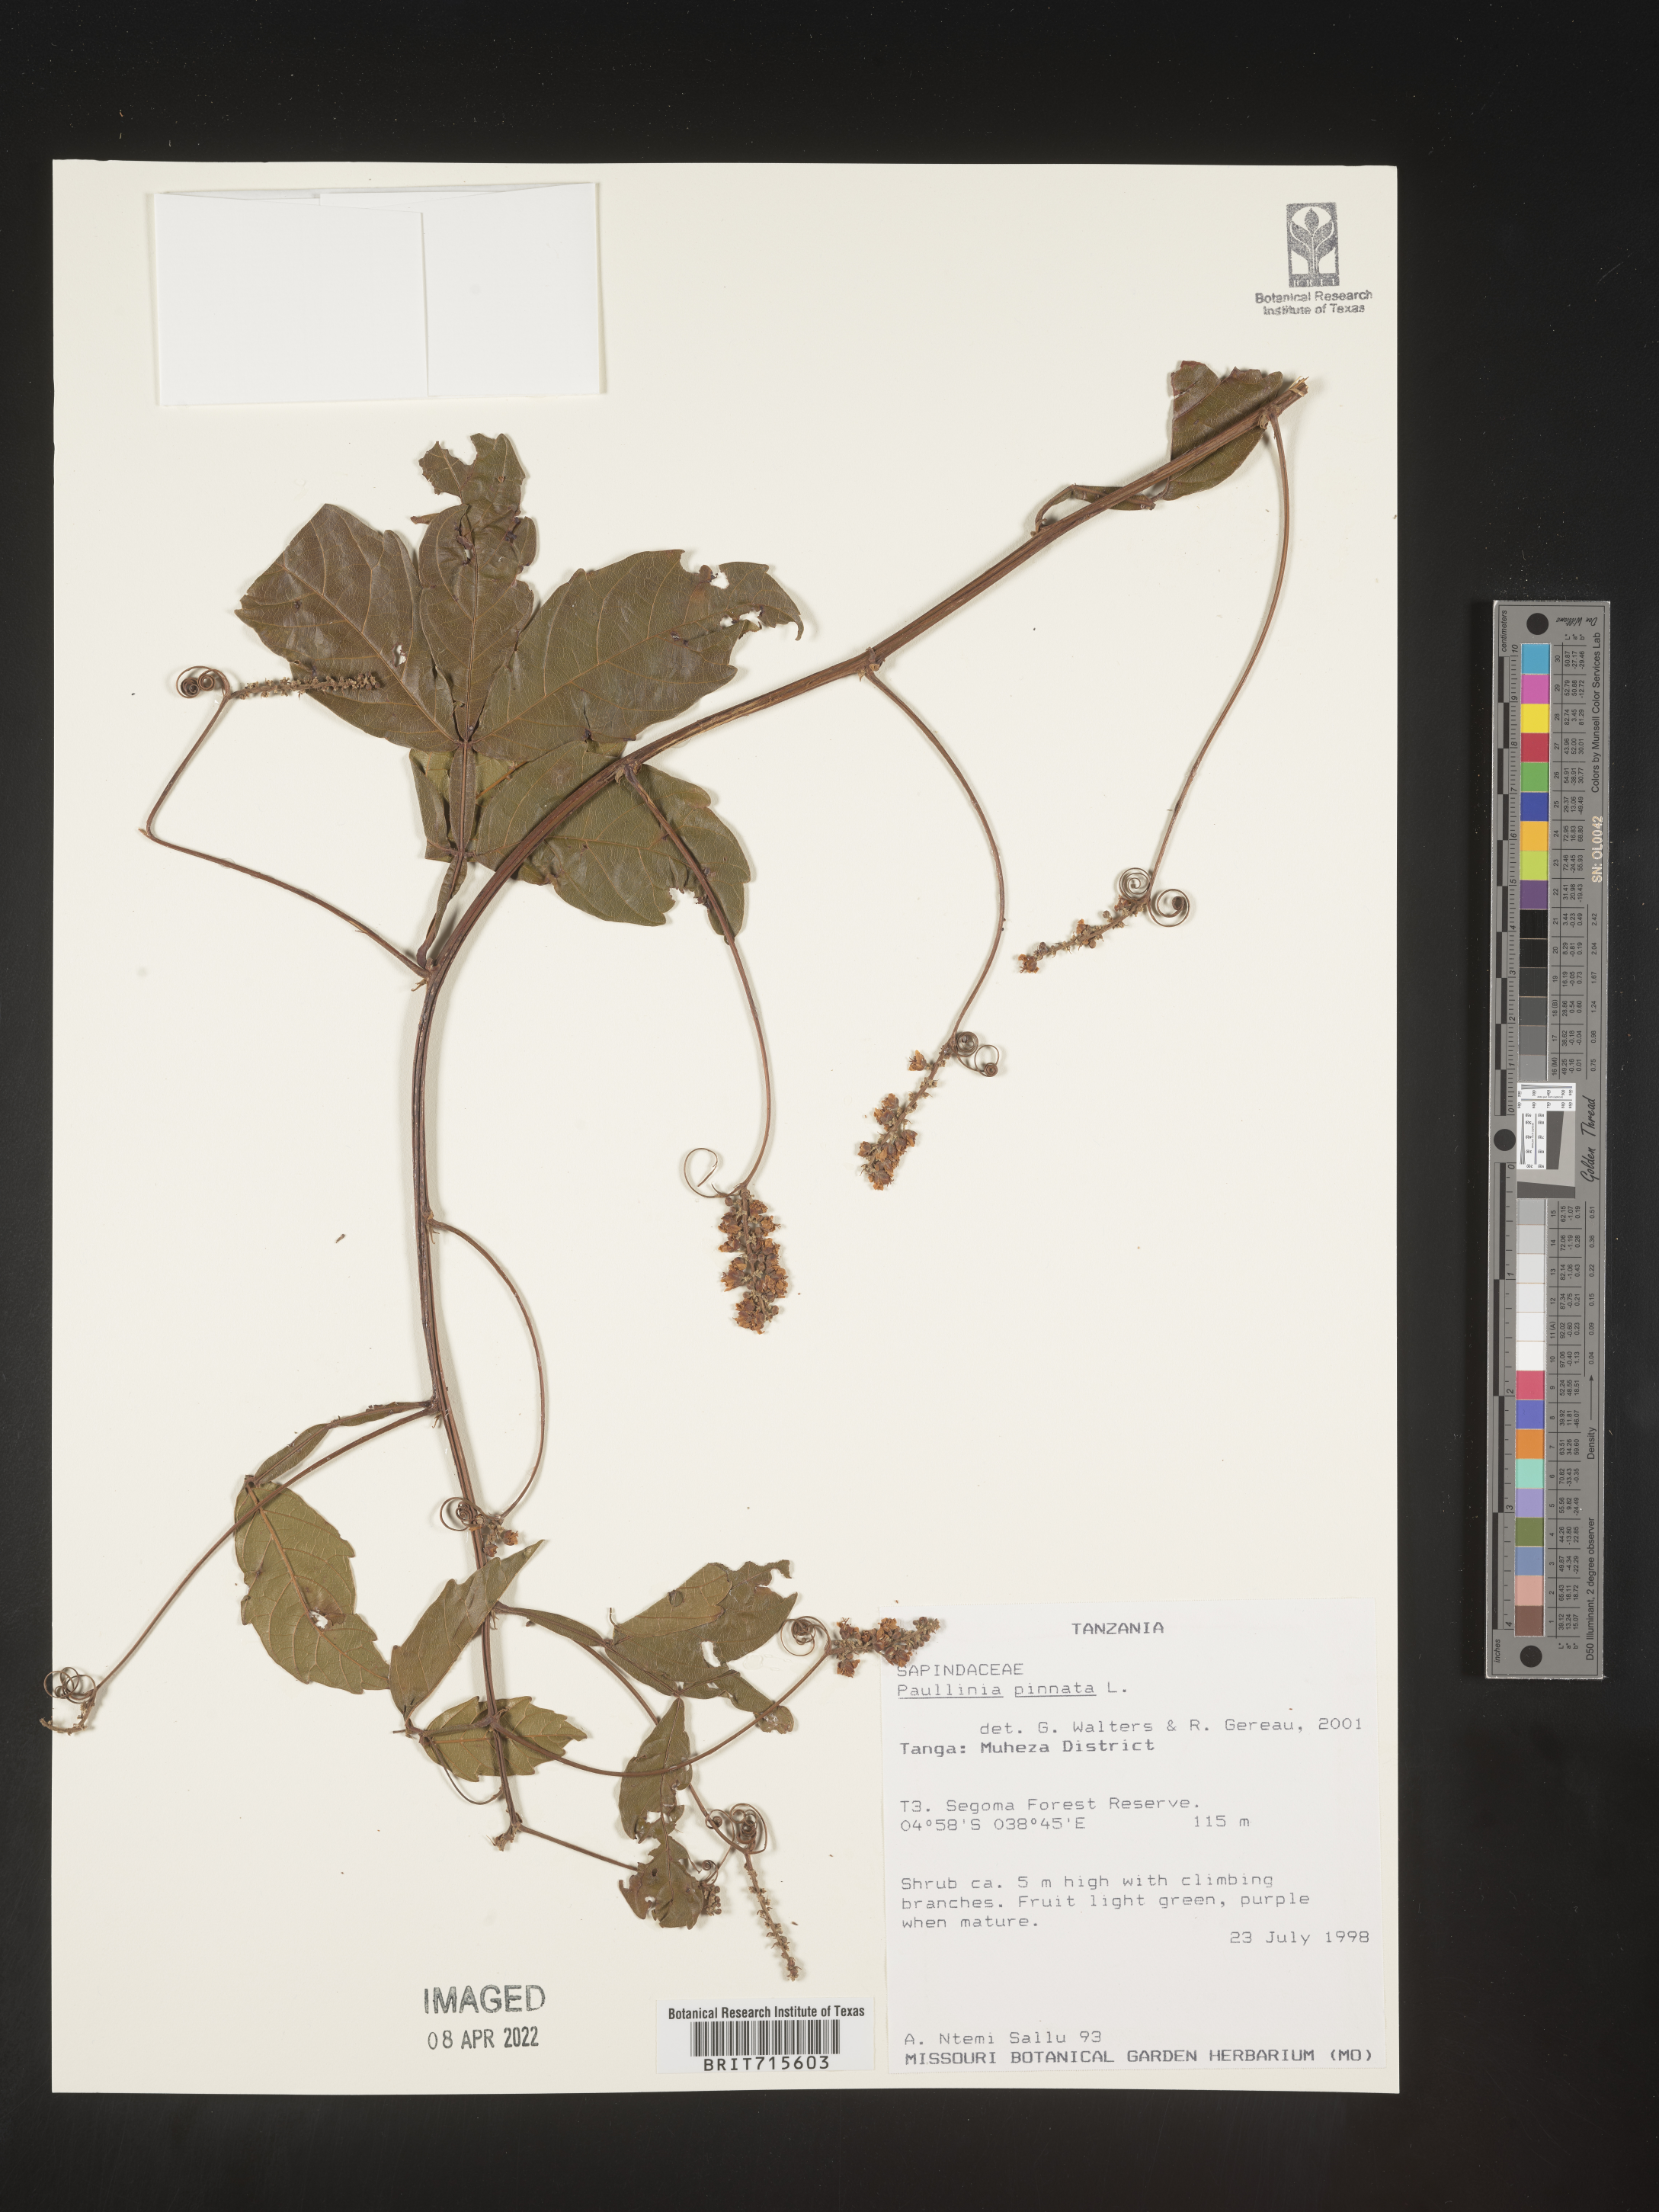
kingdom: Plantae
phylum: Tracheophyta
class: Magnoliopsida
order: Sapindales
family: Sapindaceae
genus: Paullinia
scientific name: Paullinia
